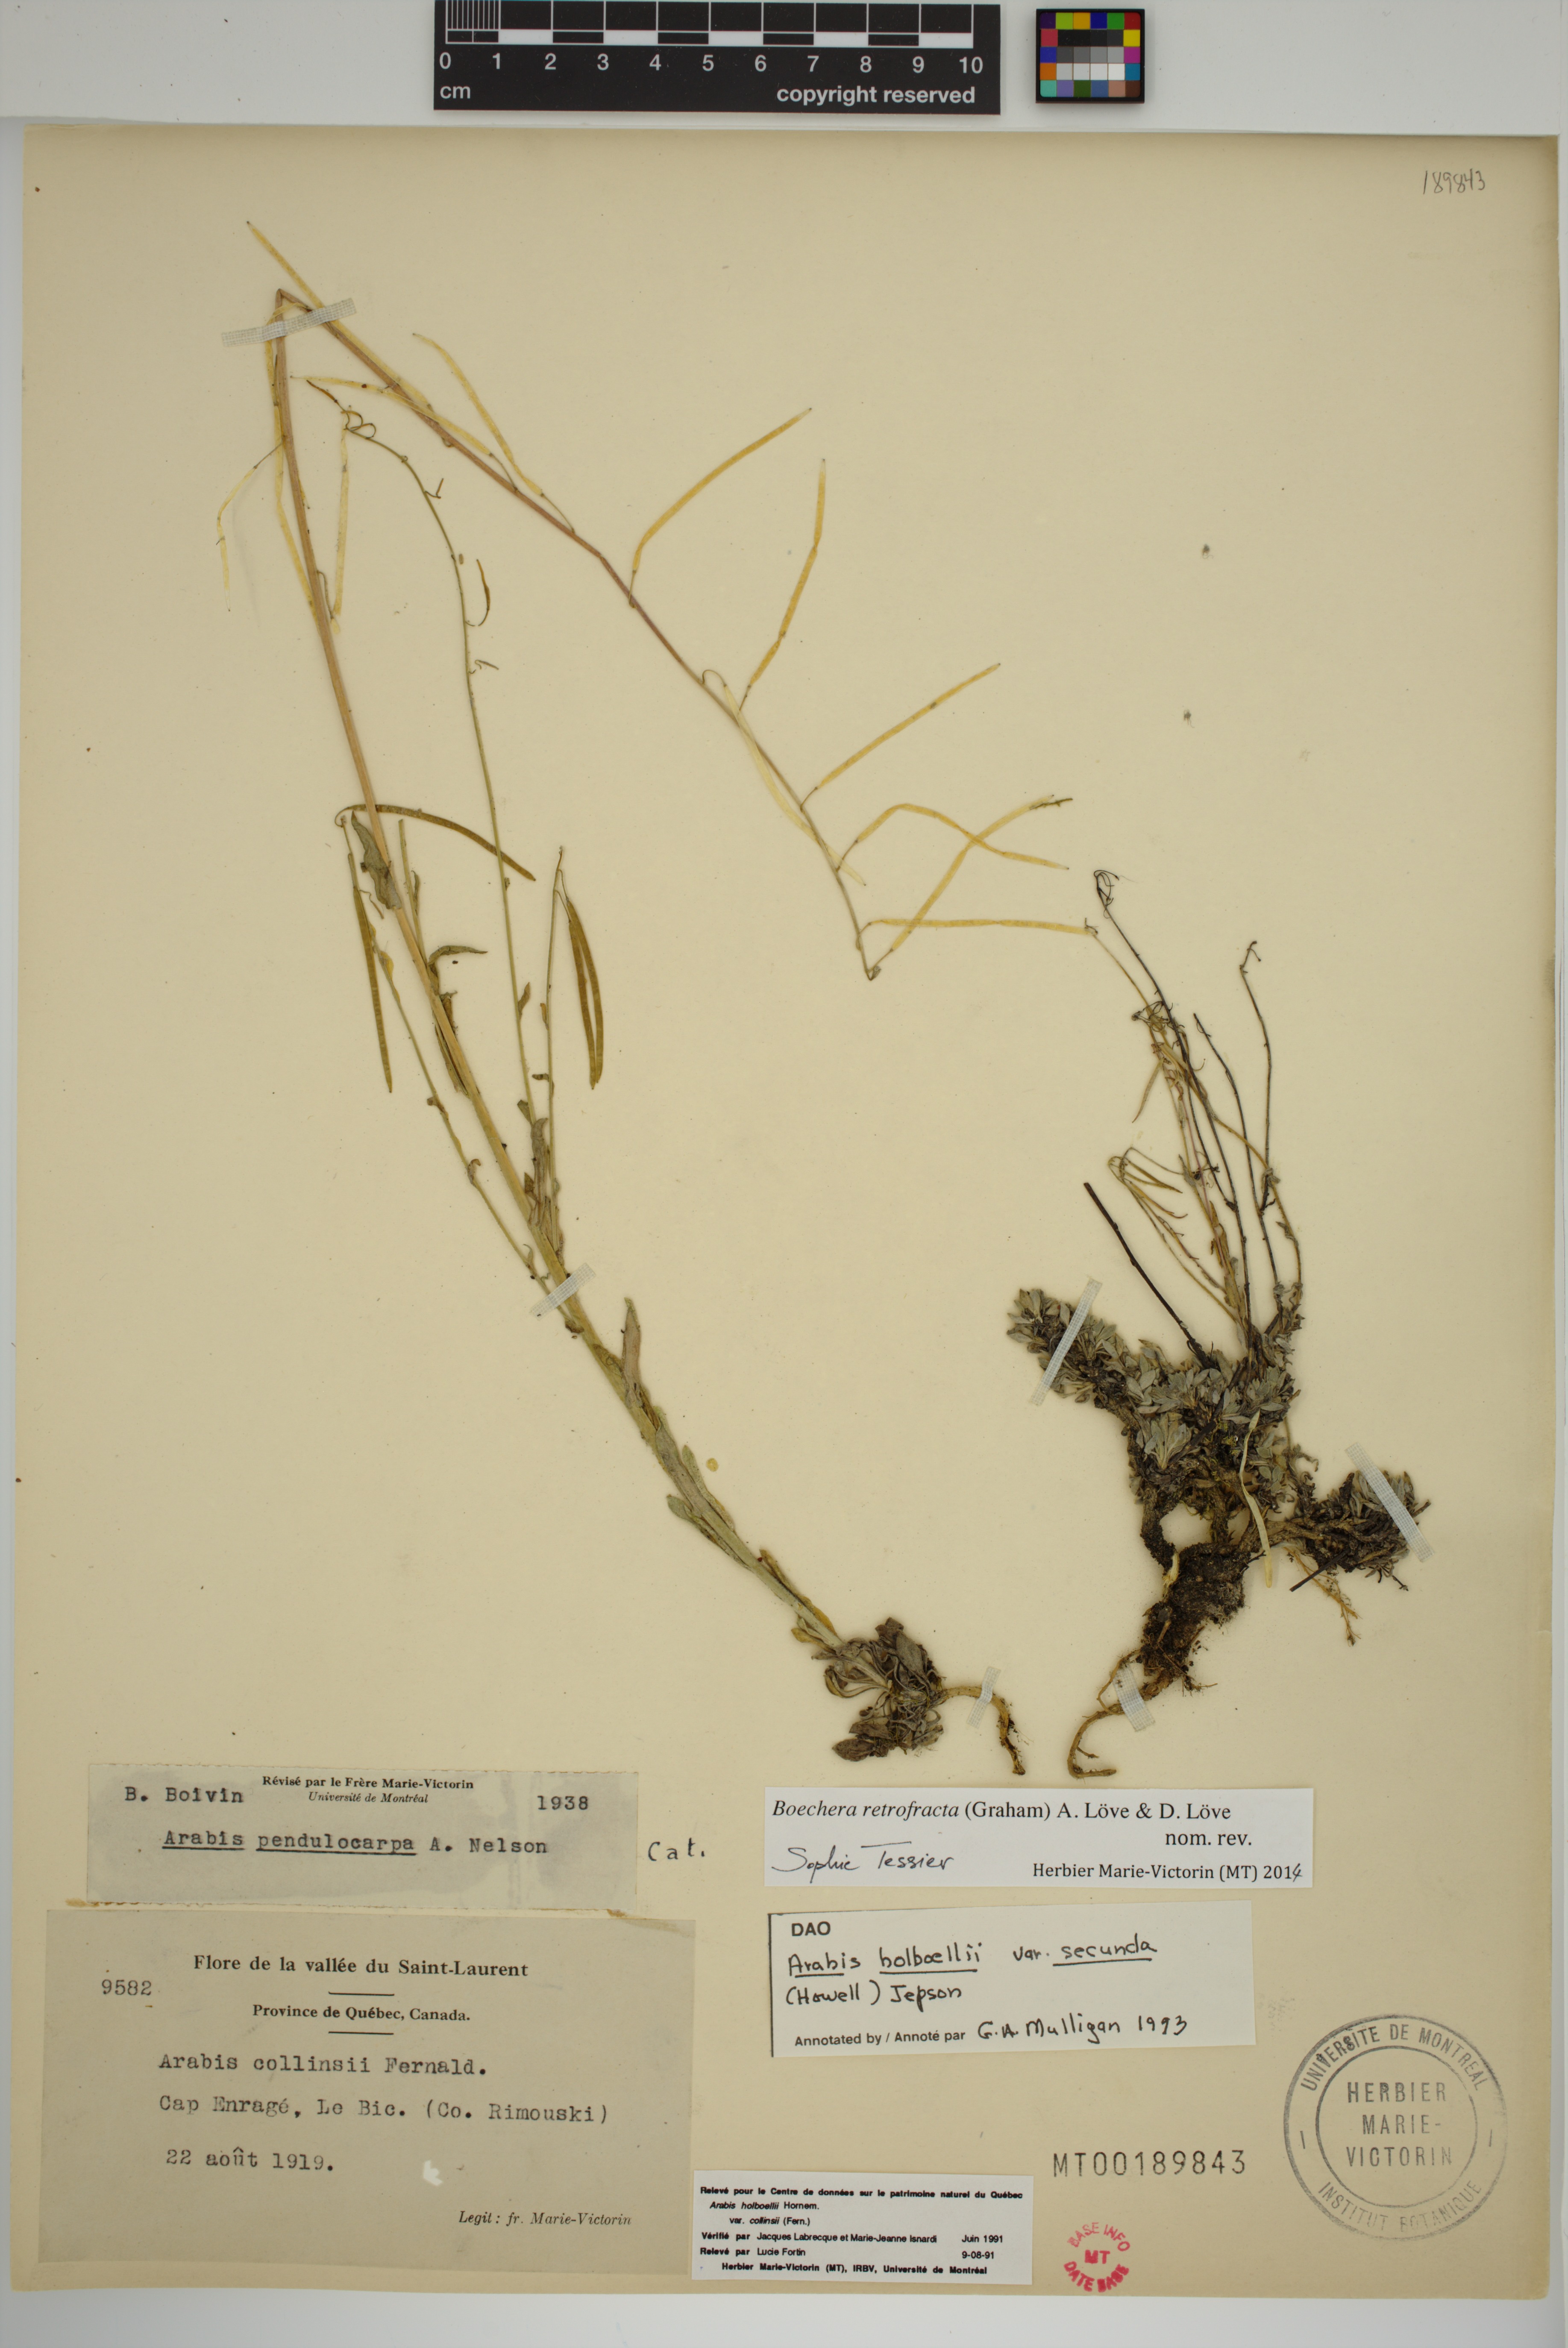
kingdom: Plantae
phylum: Tracheophyta
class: Magnoliopsida
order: Brassicales
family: Brassicaceae
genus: Boechera
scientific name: Boechera retrofracta
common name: Dangling suncress
